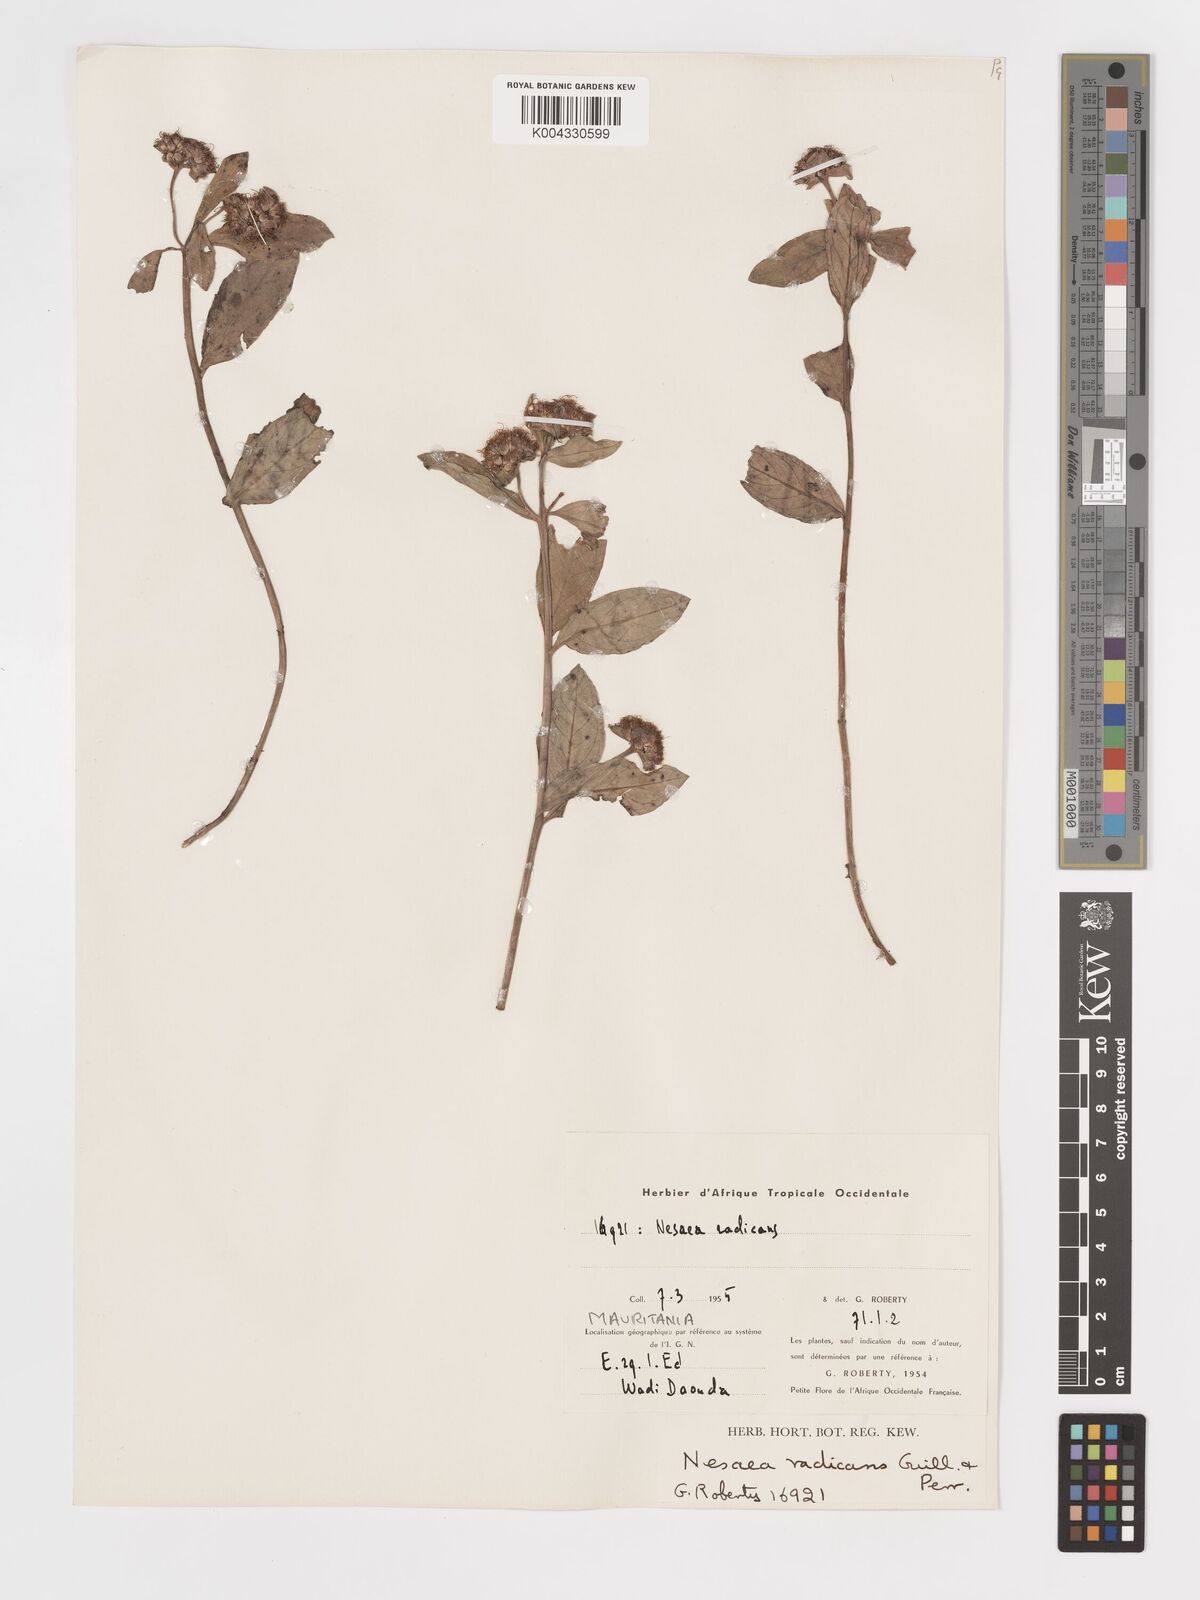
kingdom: Plantae
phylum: Tracheophyta
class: Magnoliopsida
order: Myrtales
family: Lythraceae
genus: Ammannia
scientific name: Ammannia radicans
